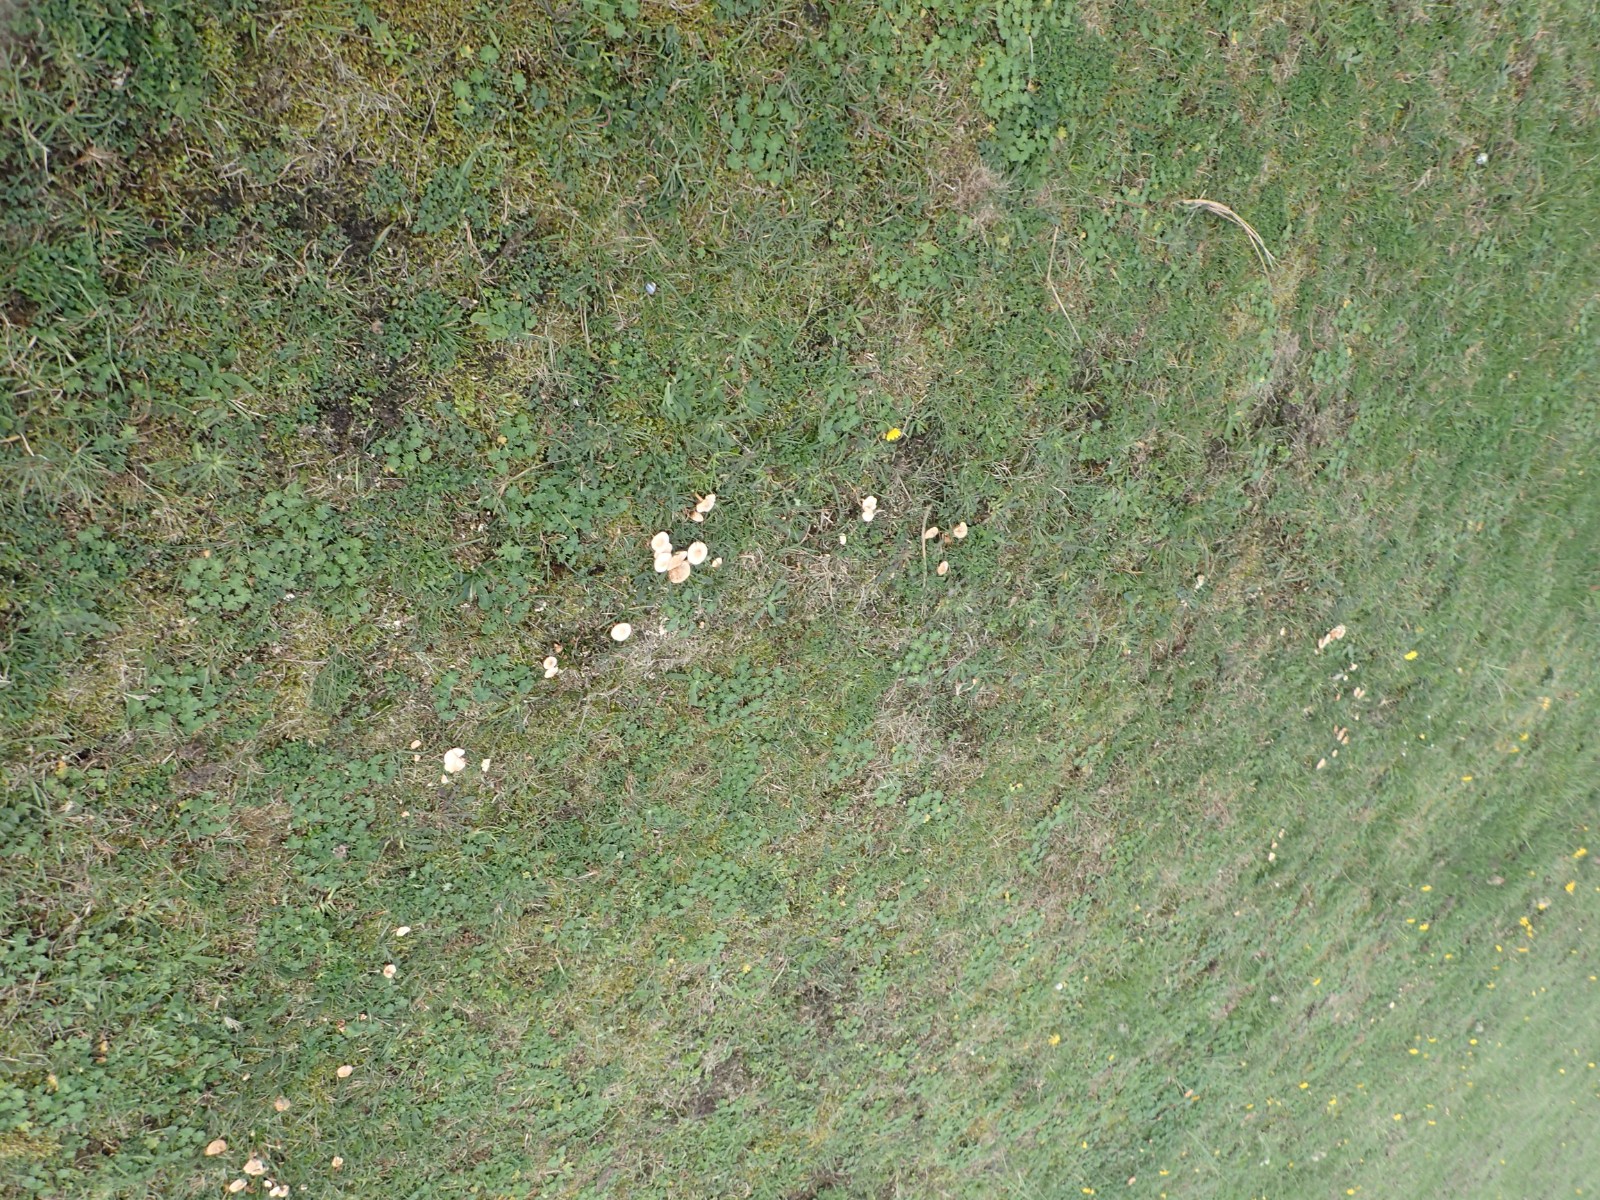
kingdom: Fungi
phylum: Basidiomycota
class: Agaricomycetes
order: Agaricales
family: Marasmiaceae
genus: Marasmius
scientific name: Marasmius oreades
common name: elledans-bruskhat
